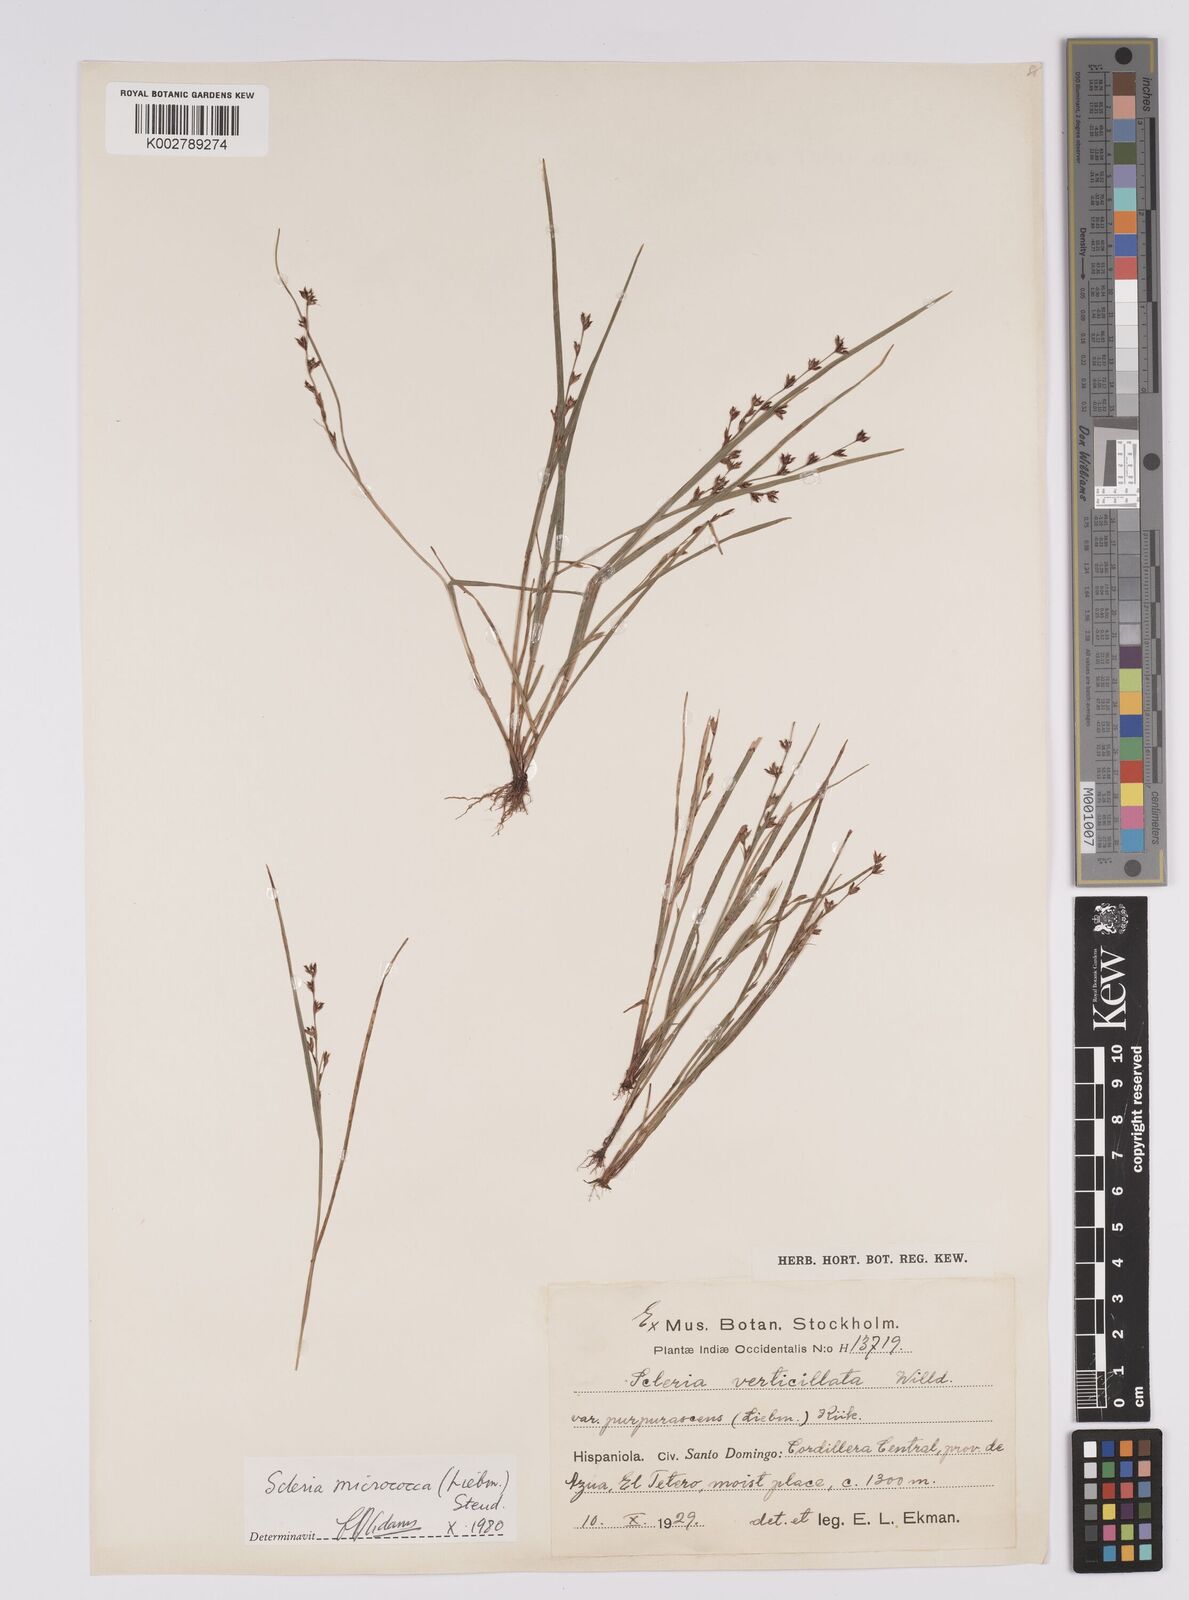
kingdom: Plantae
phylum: Tracheophyta
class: Liliopsida
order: Poales
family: Cyperaceae
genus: Scleria
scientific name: Scleria verticillata
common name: Low nutrush
